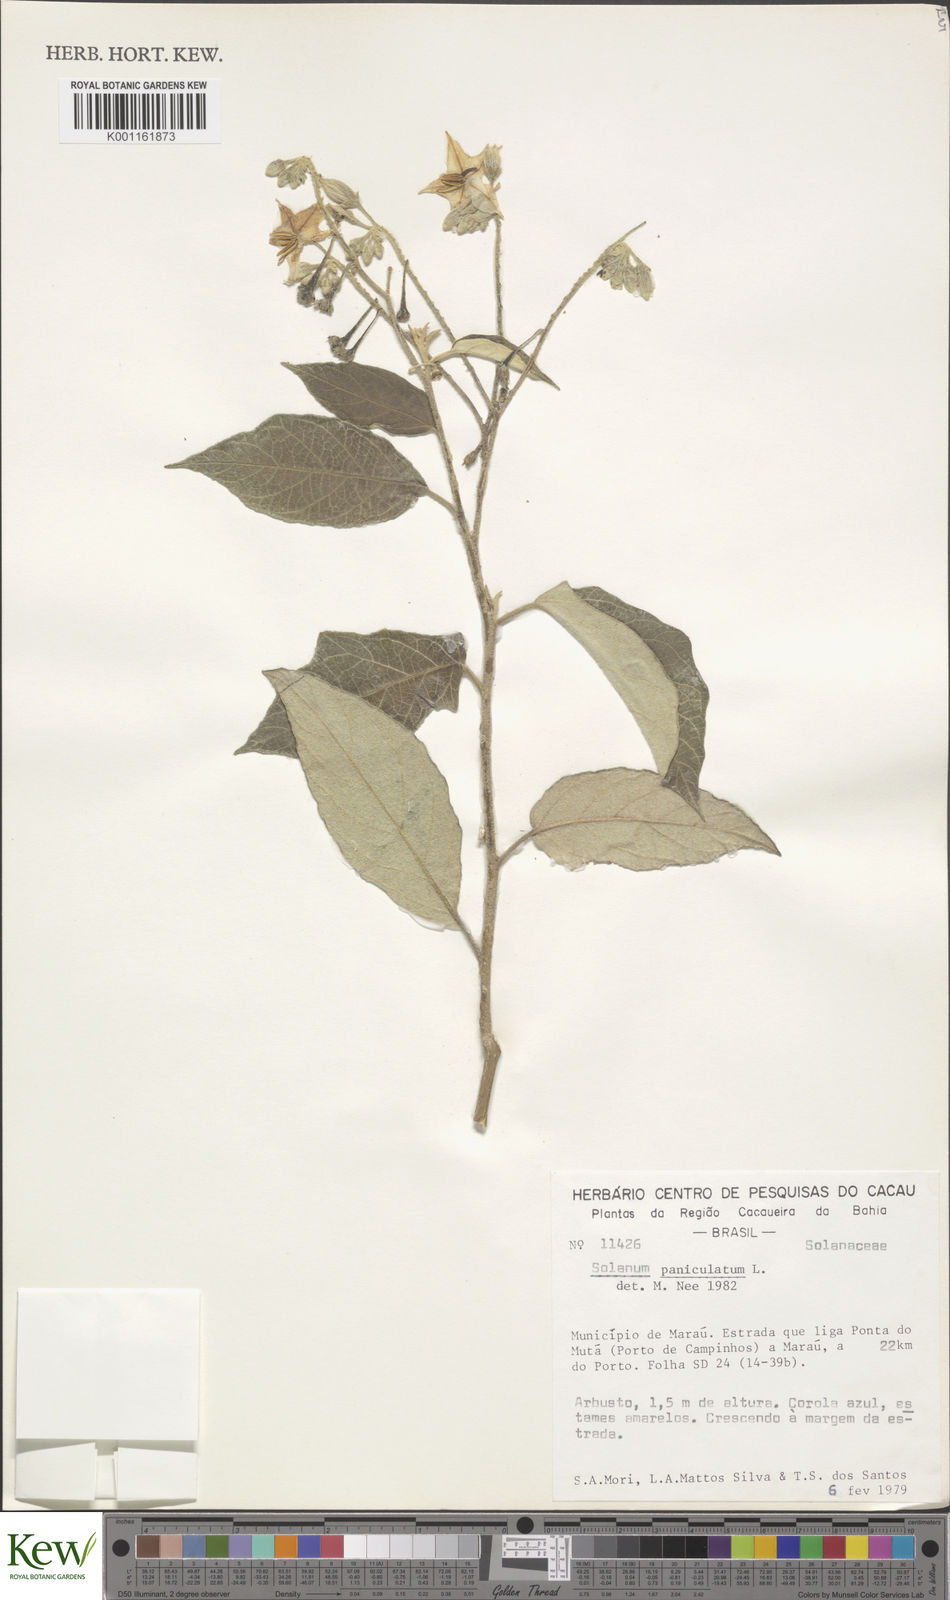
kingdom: Plantae
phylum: Tracheophyta
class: Magnoliopsida
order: Solanales
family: Solanaceae
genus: Solanum
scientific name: Solanum paniculatum
